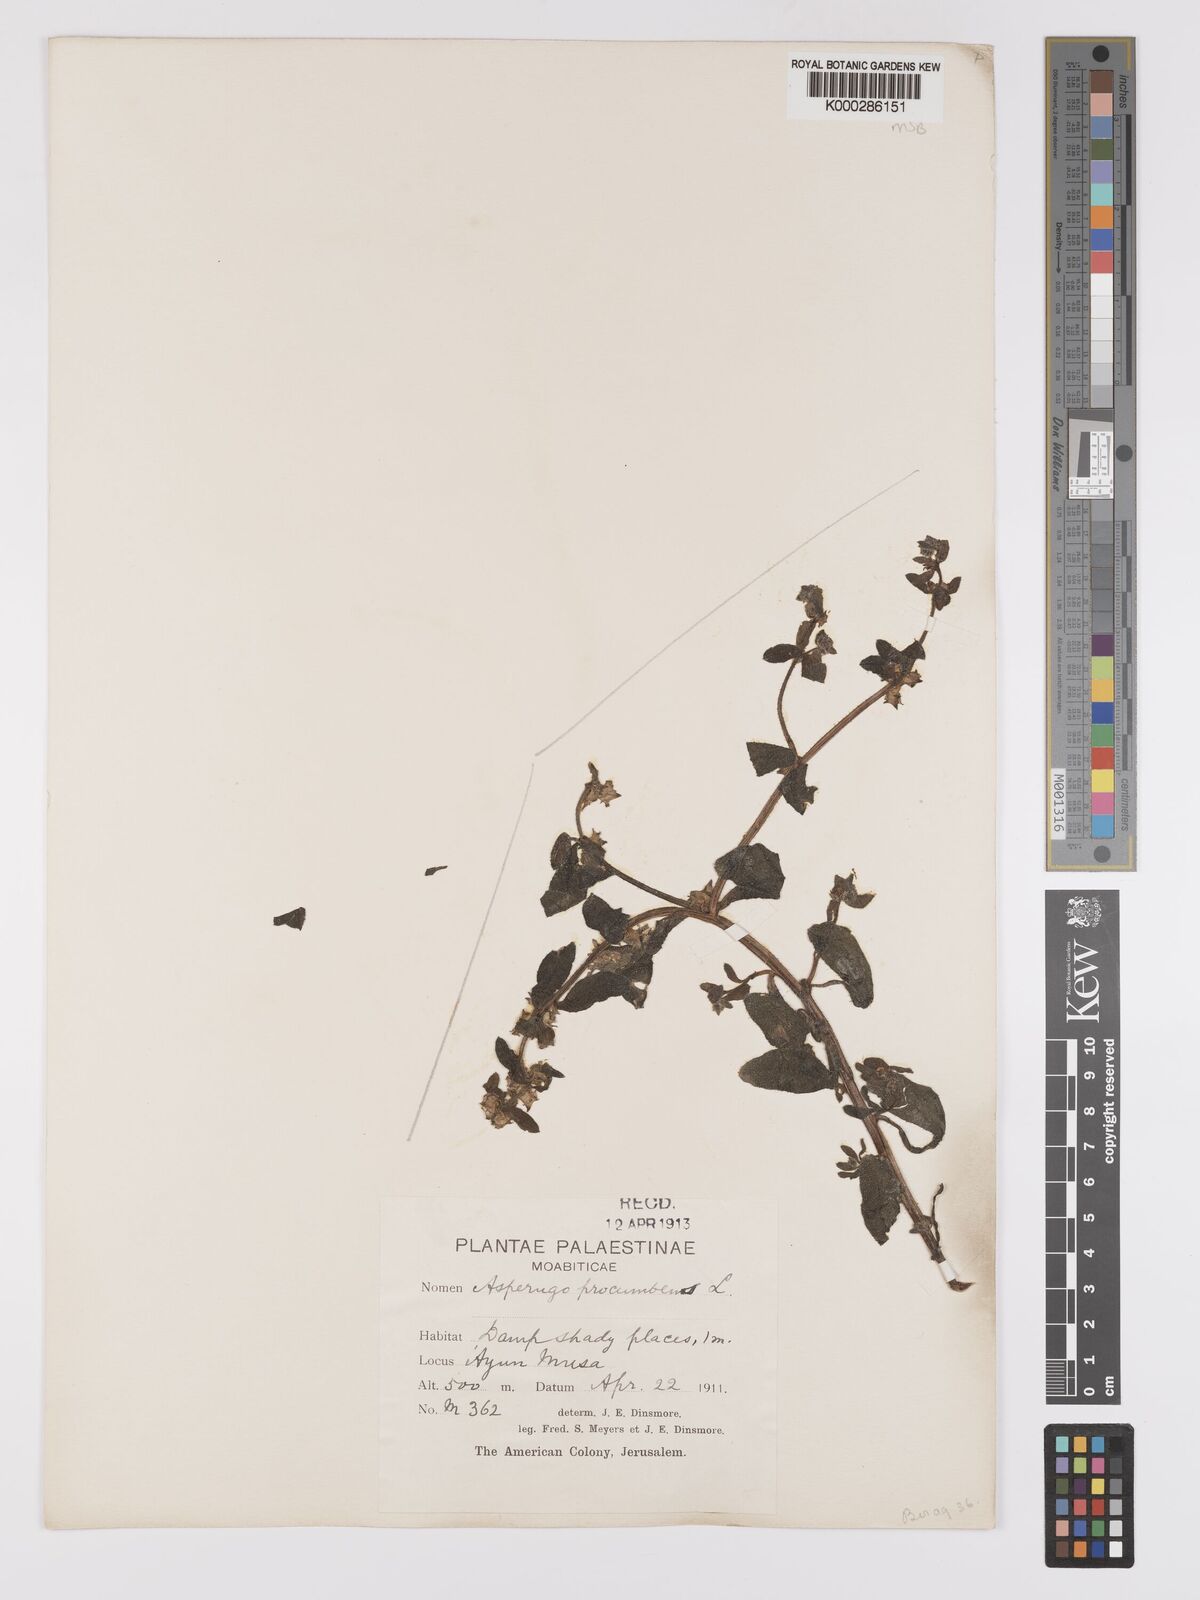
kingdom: Plantae
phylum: Tracheophyta
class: Magnoliopsida
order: Boraginales
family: Boraginaceae
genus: Asperugo
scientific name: Asperugo procumbens
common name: Madwort
